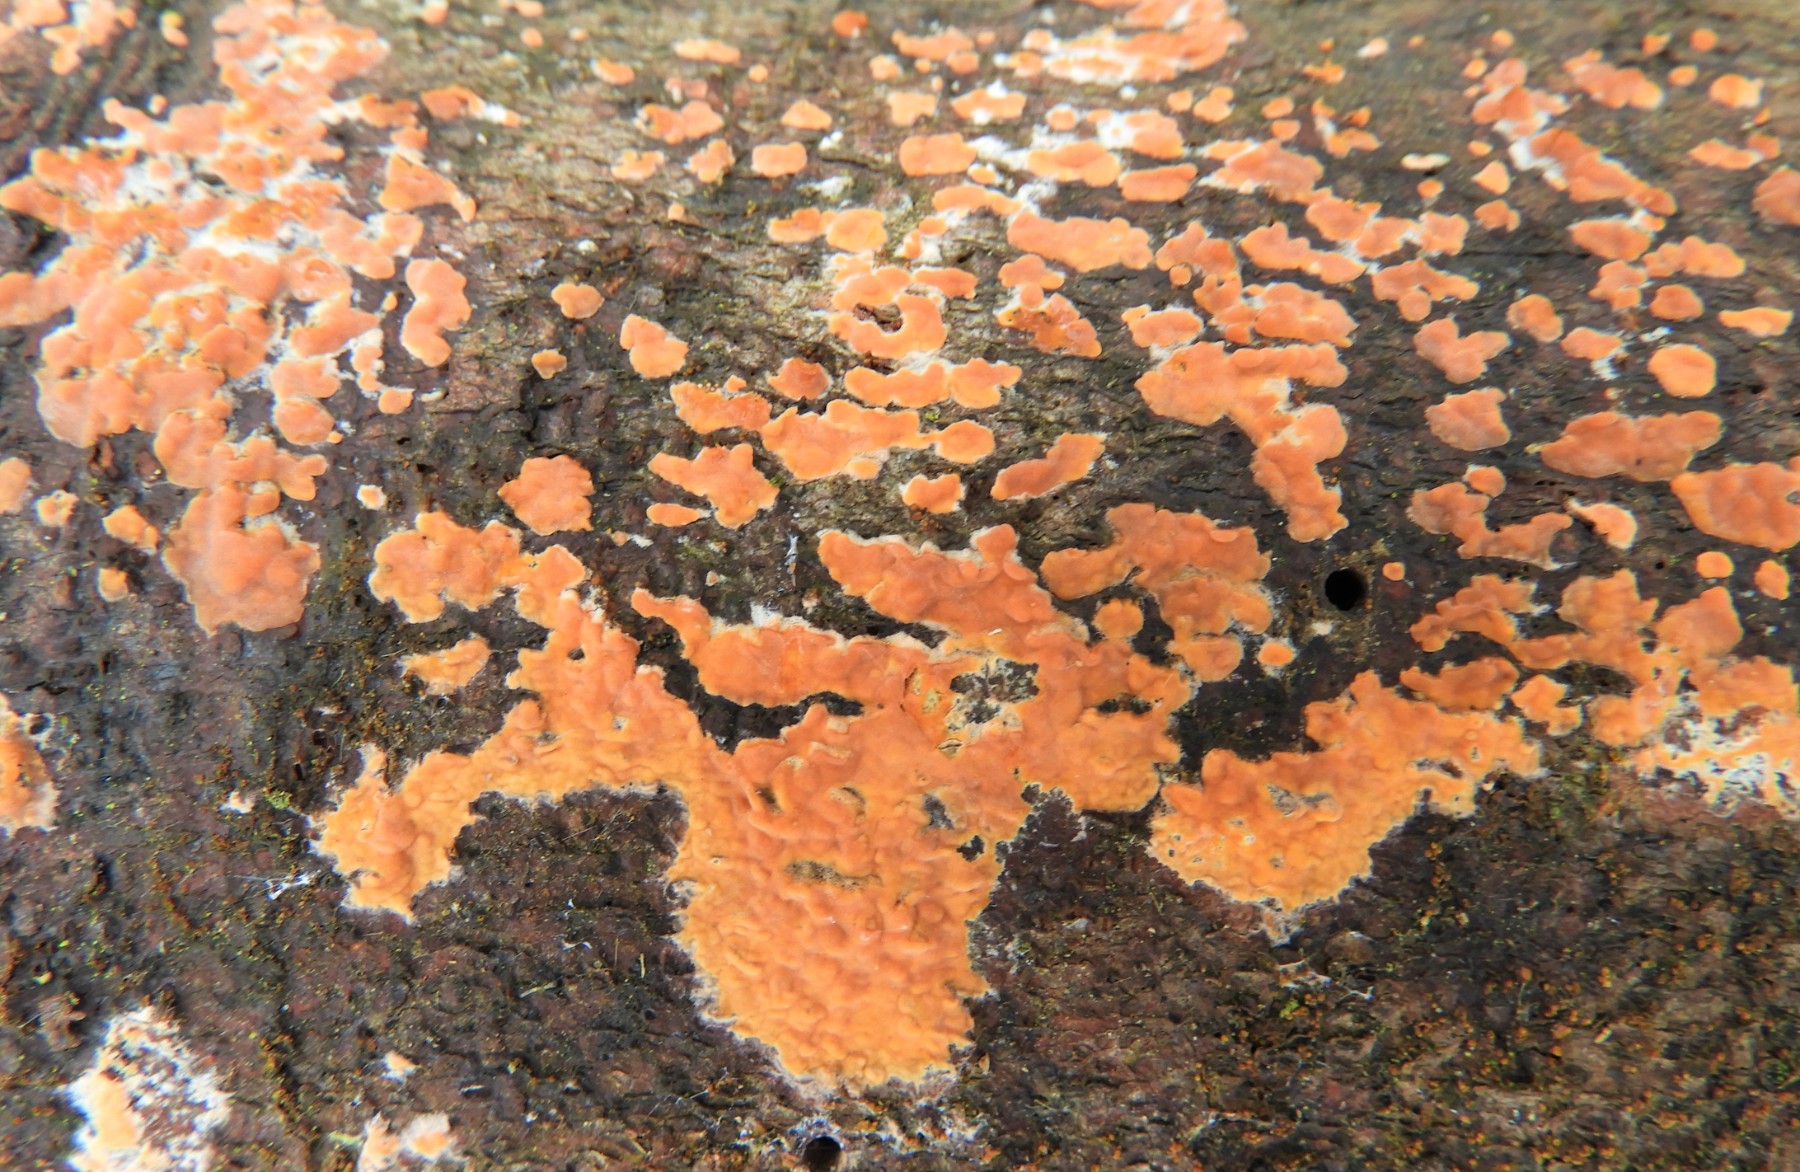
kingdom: Fungi
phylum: Basidiomycota
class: Agaricomycetes
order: Russulales
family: Peniophoraceae
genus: Peniophora
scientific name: Peniophora incarnata
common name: laksefarvet voksskind
